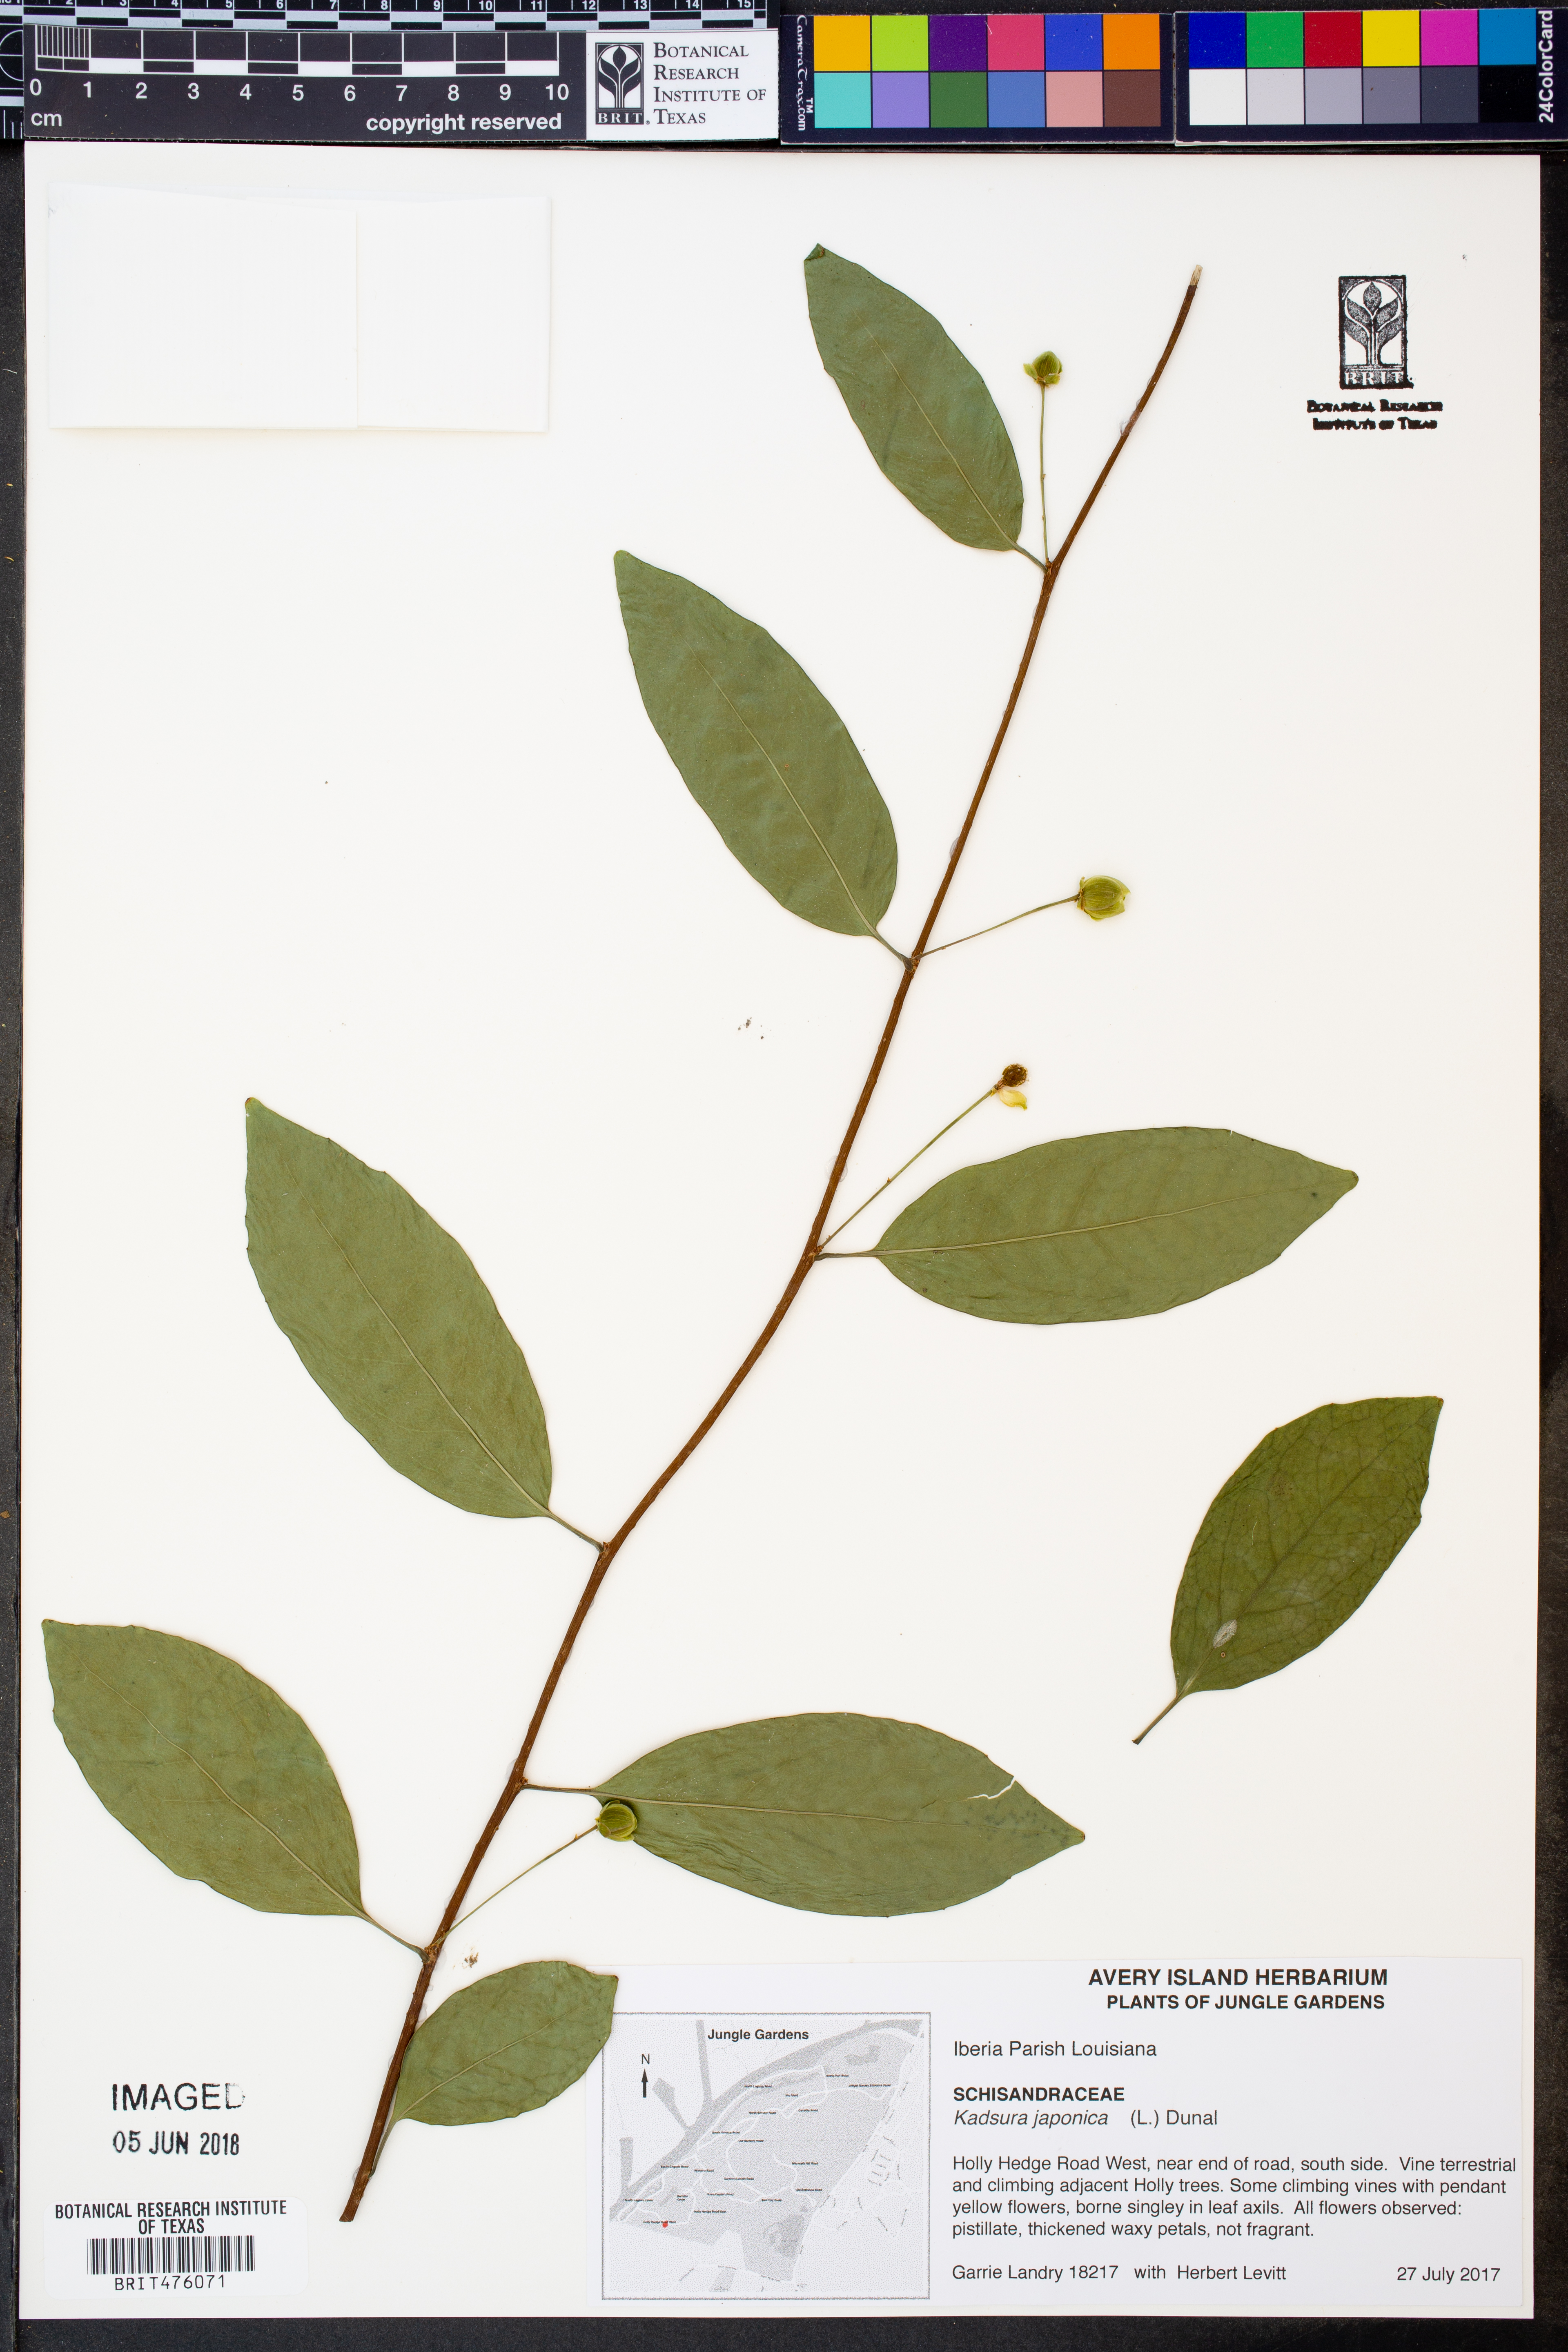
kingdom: Plantae
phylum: Tracheophyta
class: Magnoliopsida
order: Austrobaileyales
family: Schisandraceae
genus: Kadsura
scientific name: Kadsura japonica
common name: Japanese kadsura
